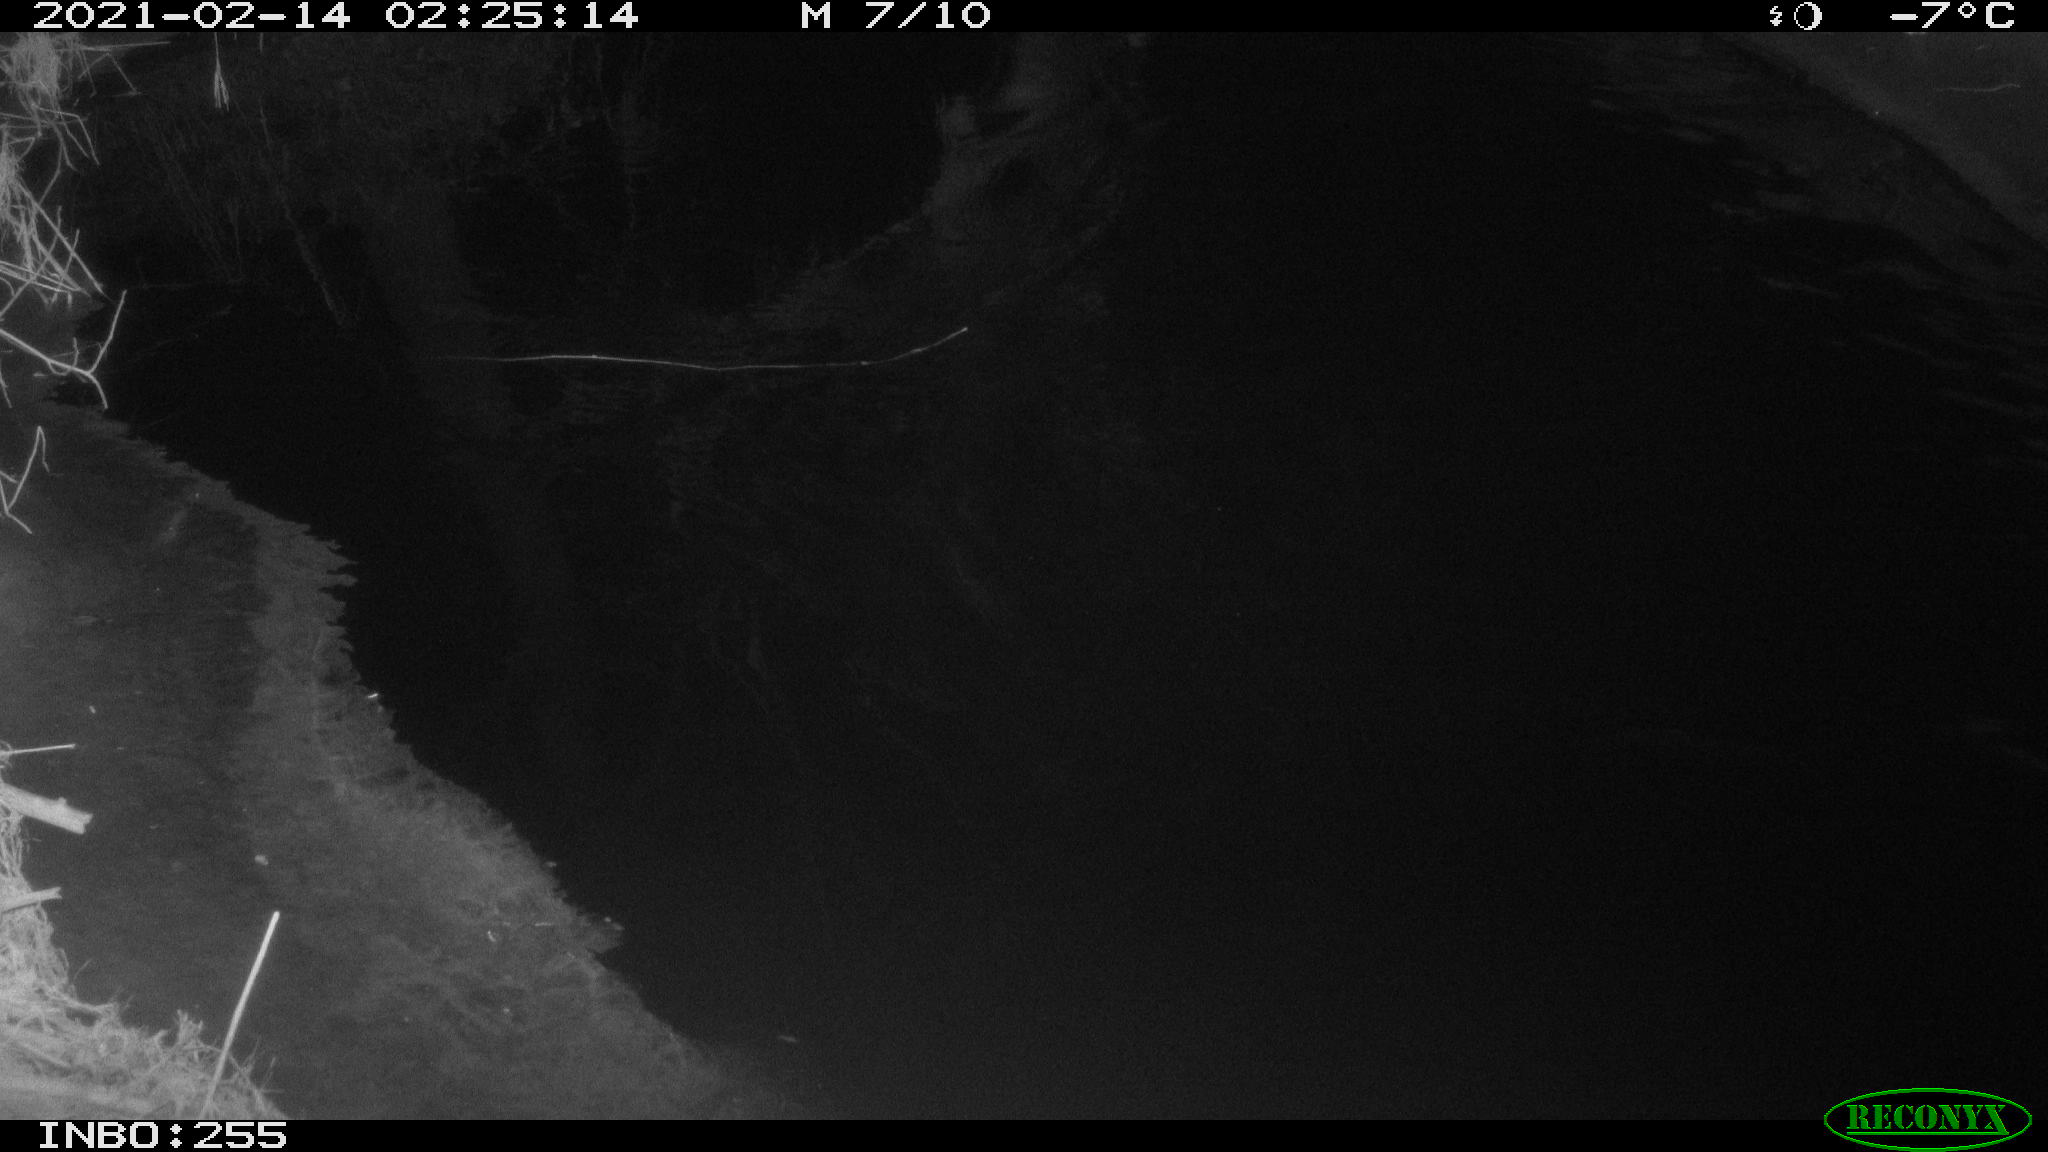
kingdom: Animalia
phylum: Chordata
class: Aves
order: Anseriformes
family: Anatidae
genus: Anas
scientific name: Anas platyrhynchos
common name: Mallard
